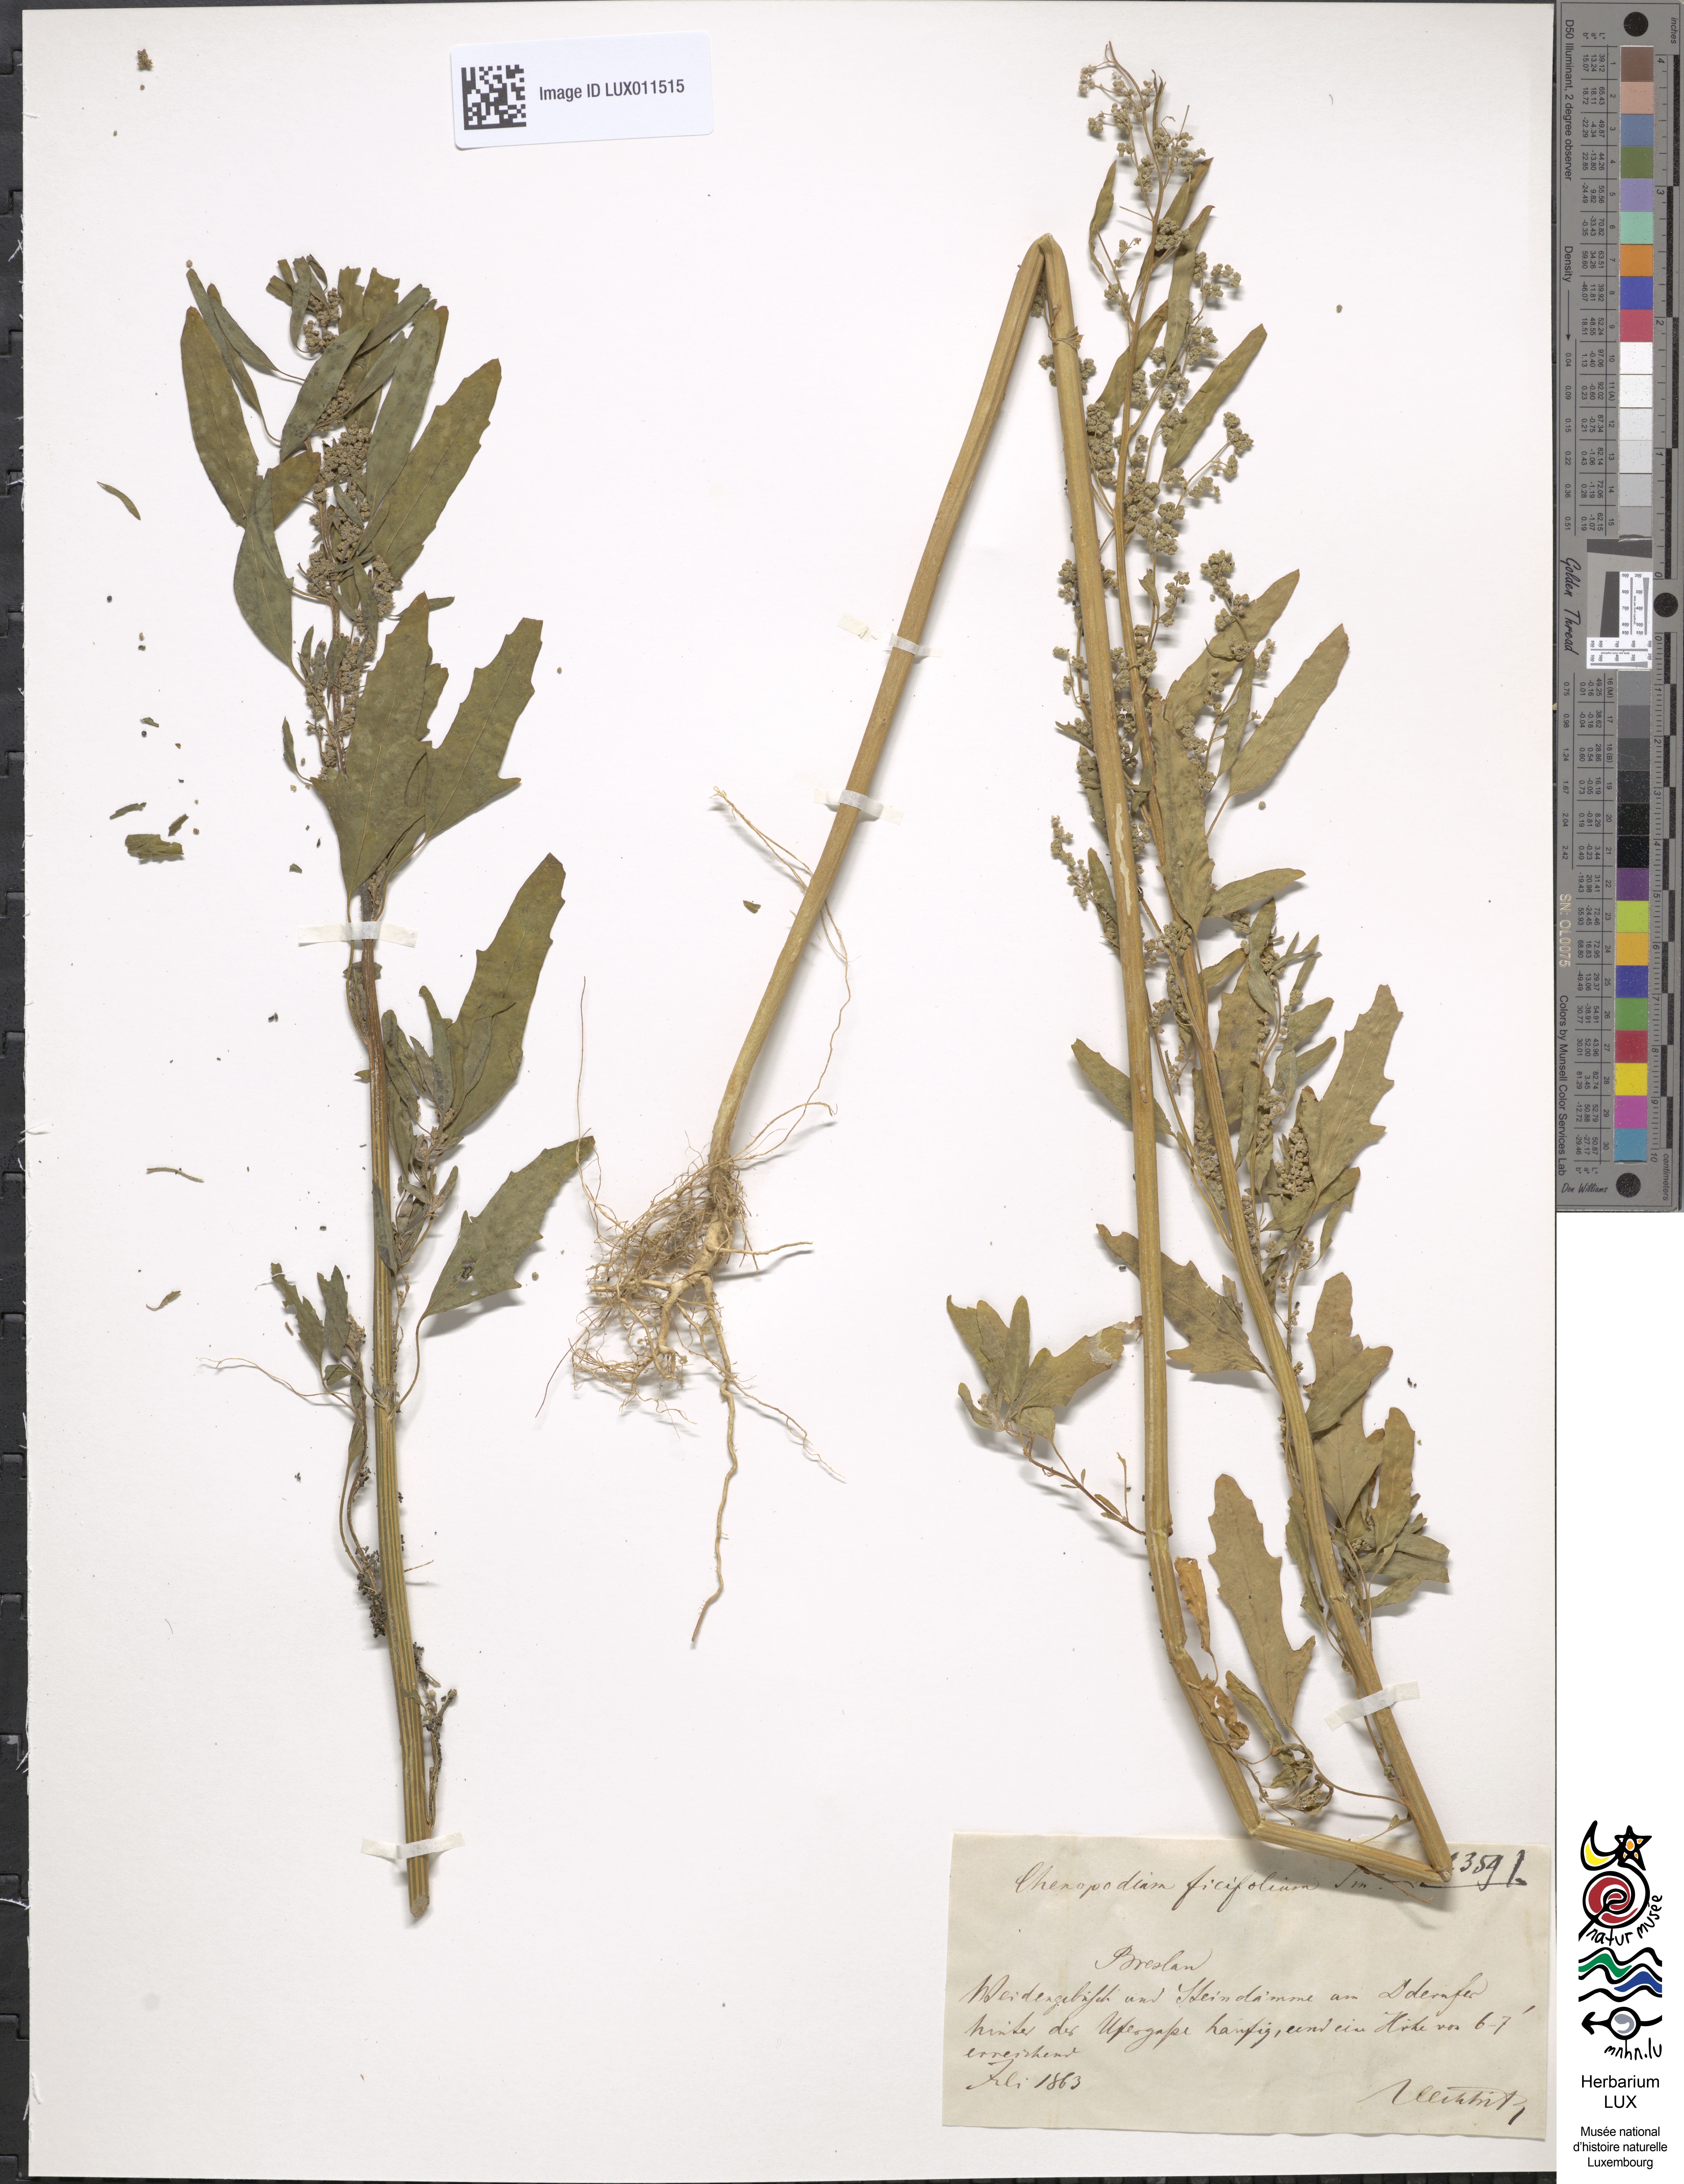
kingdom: Plantae
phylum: Tracheophyta
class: Magnoliopsida
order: Caryophyllales
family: Amaranthaceae
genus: Chenopodium
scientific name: Chenopodium ficifolium
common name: Fig-leaved goosefoot
